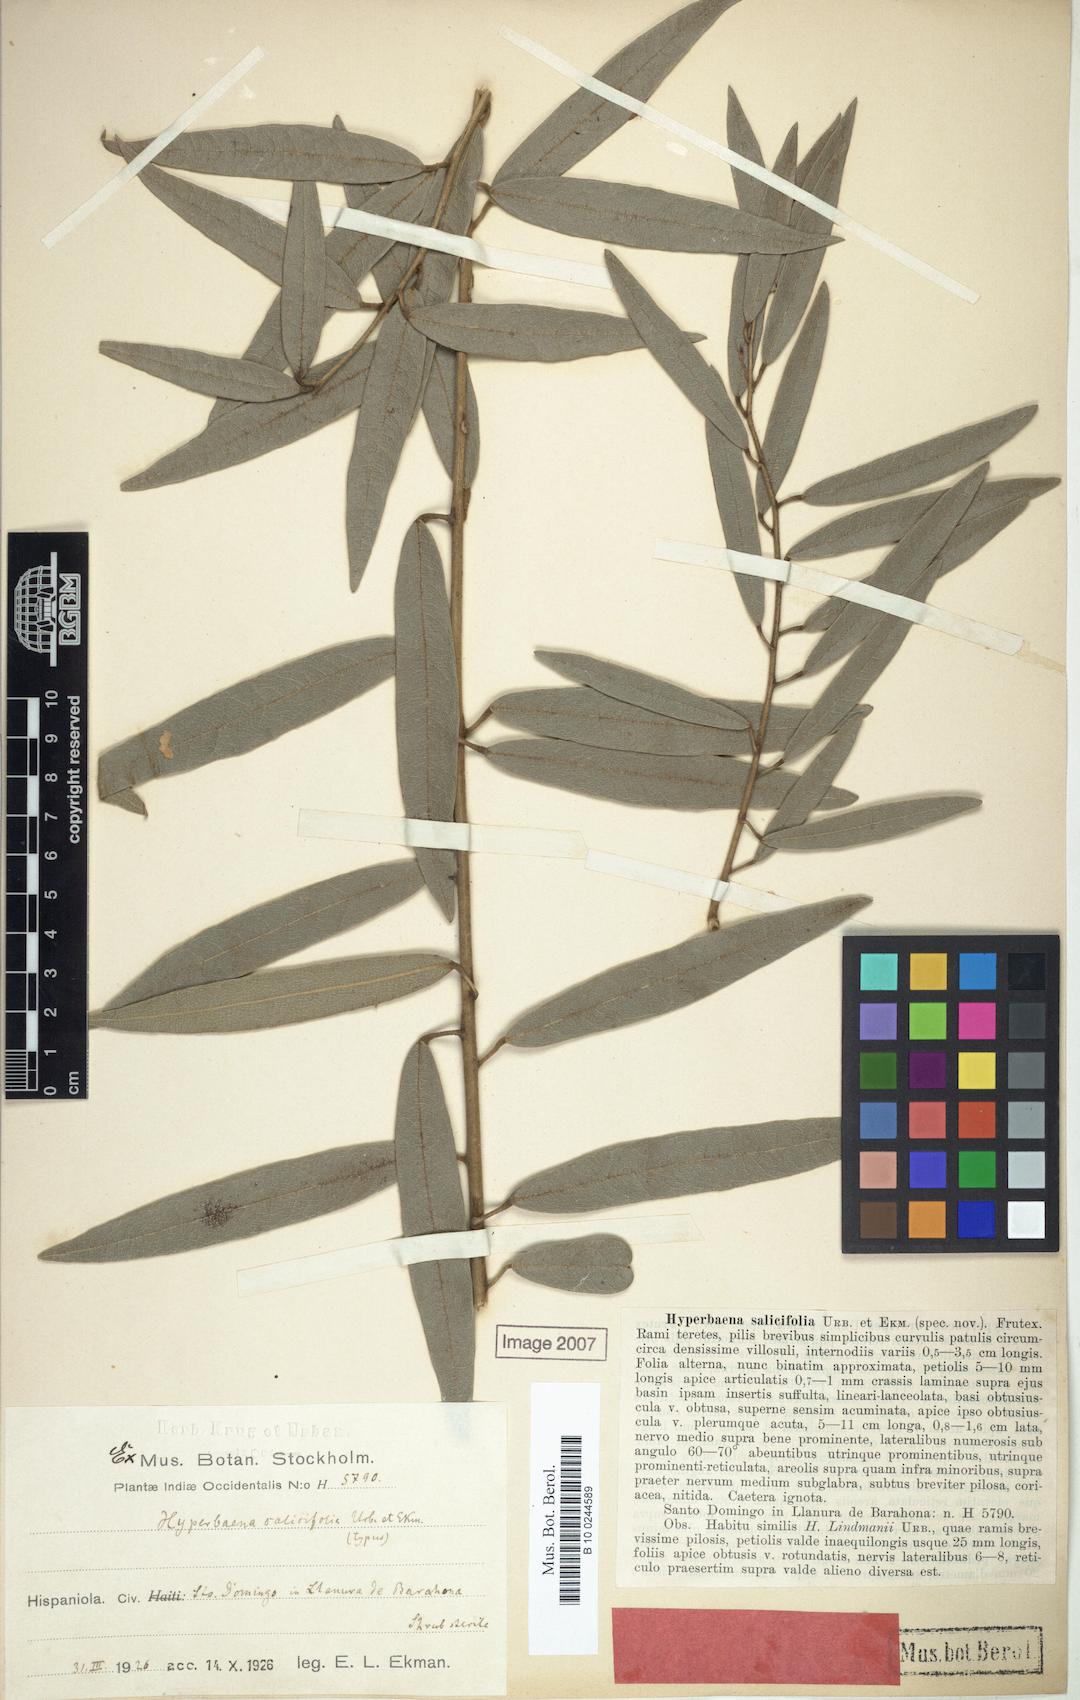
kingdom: Plantae
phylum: Tracheophyta
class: Magnoliopsida
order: Ranunculales
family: Menispermaceae
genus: Hyperbaena
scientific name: Hyperbaena lindmanii
